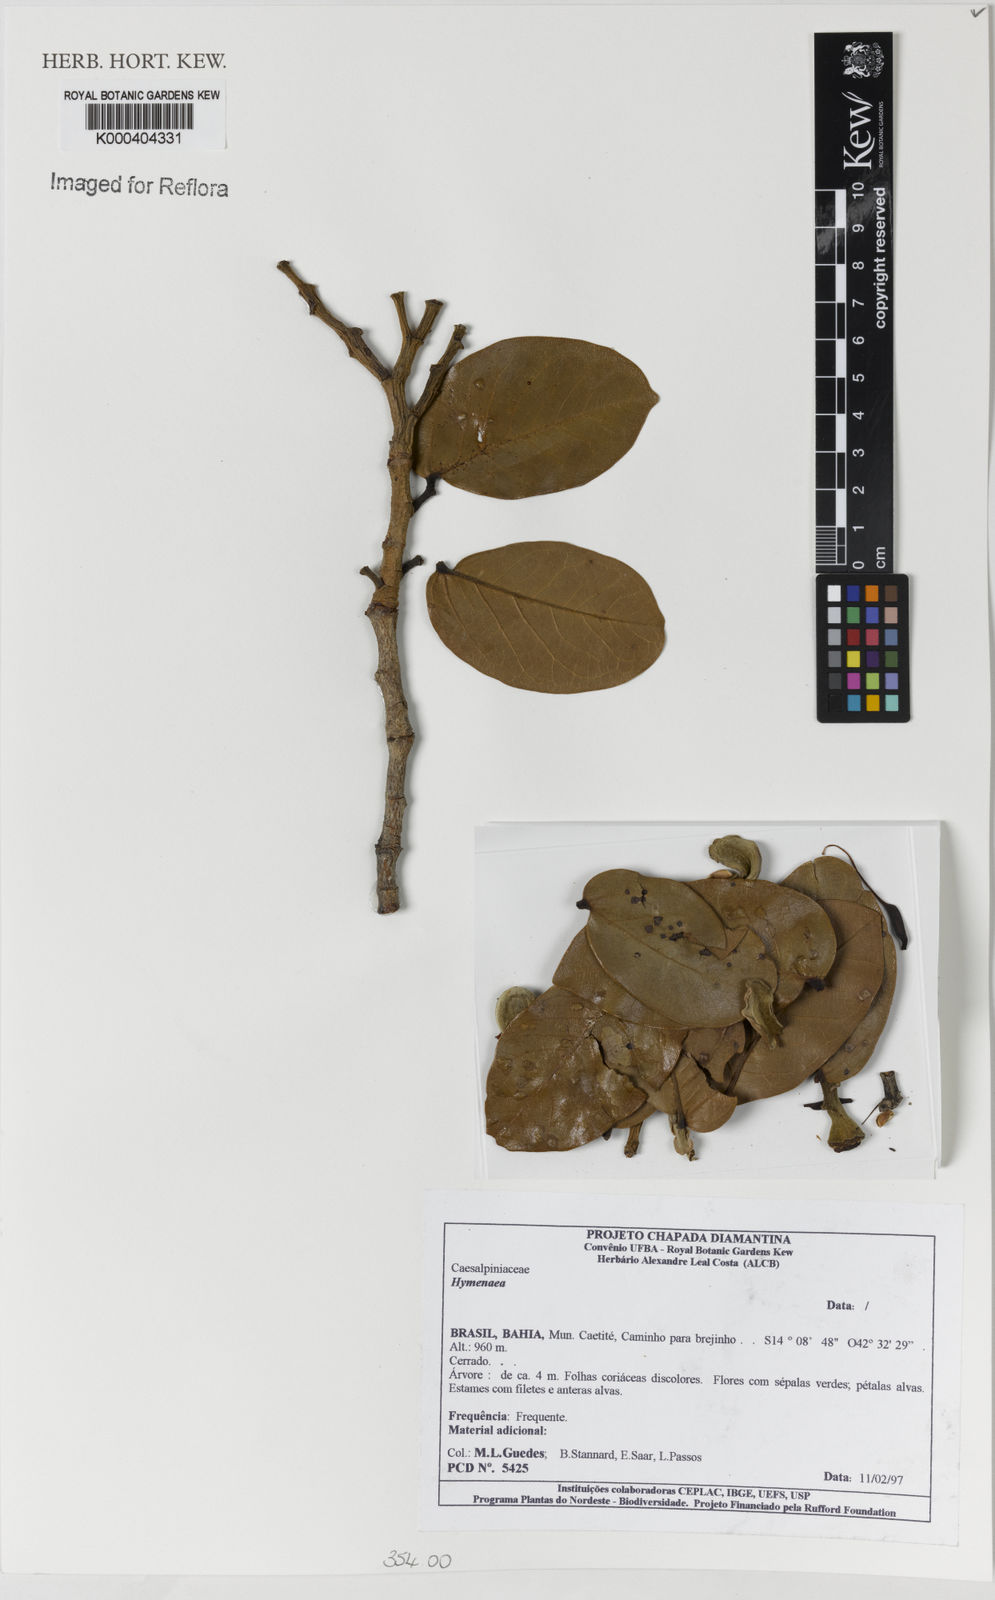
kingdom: Plantae
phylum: Tracheophyta
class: Magnoliopsida
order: Fabales
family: Fabaceae
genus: Hymenaea
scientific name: Hymenaea
